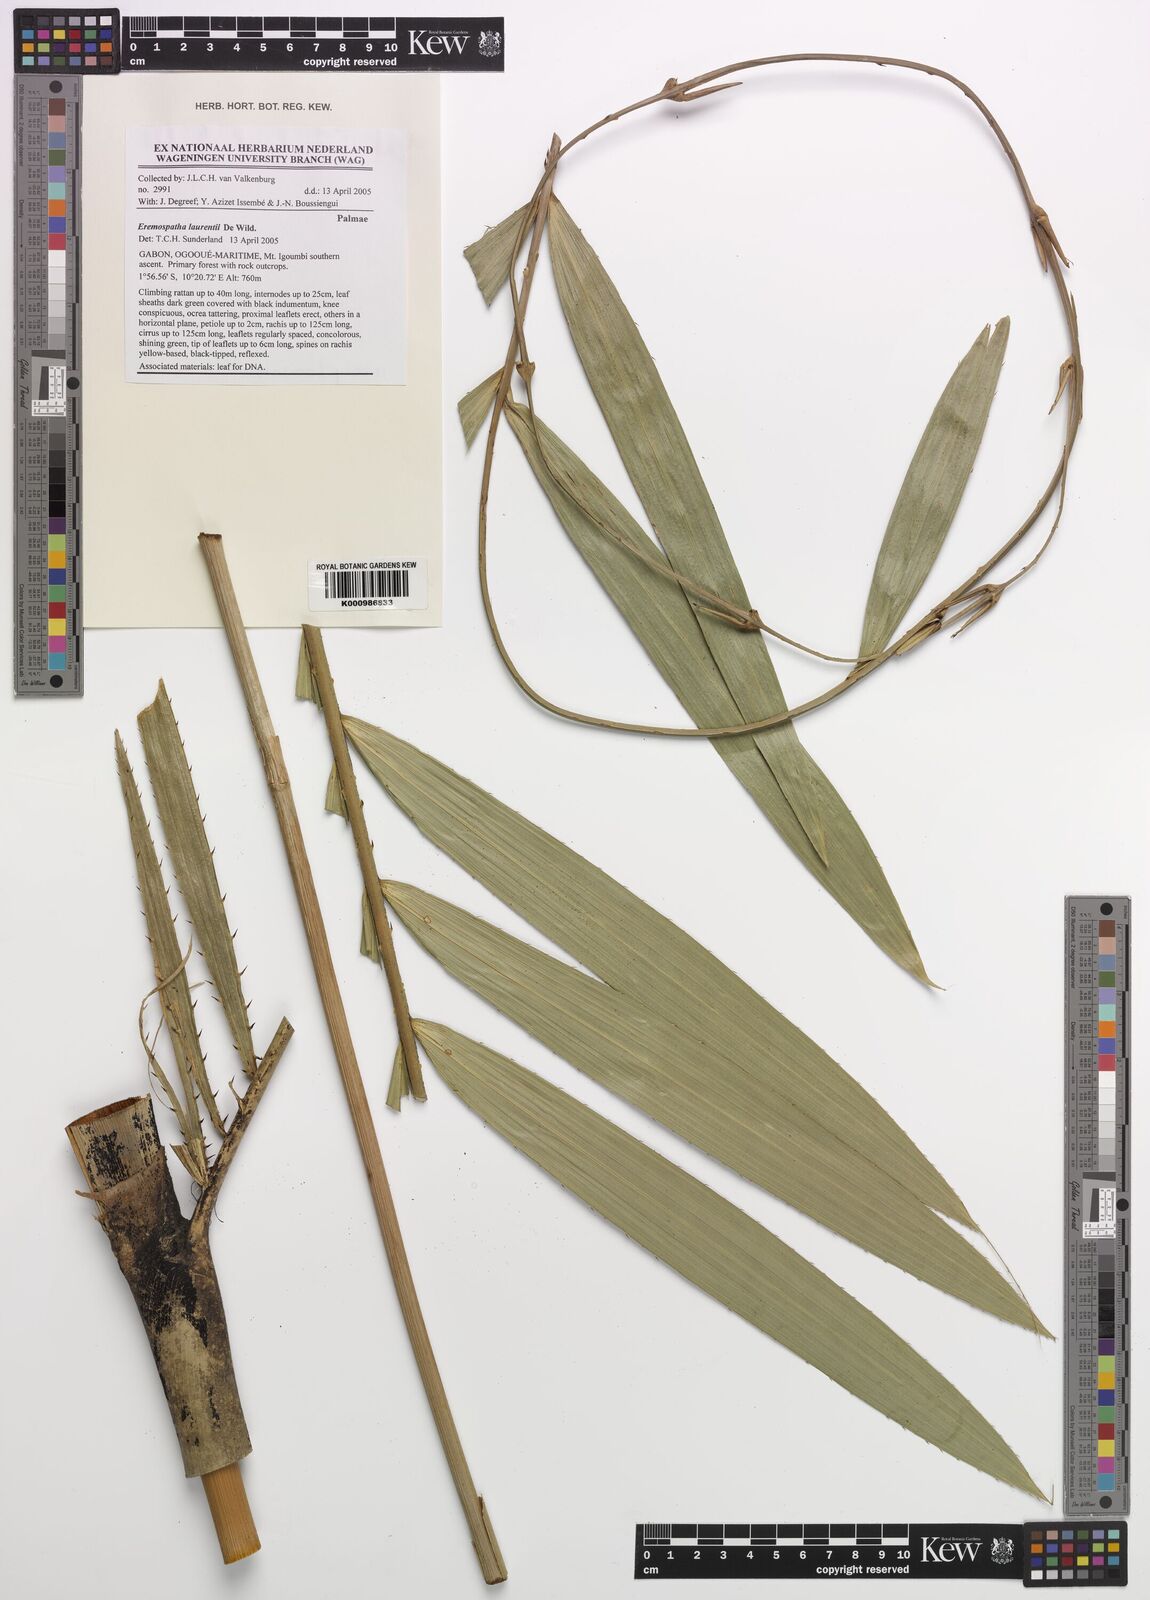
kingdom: Plantae
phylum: Tracheophyta
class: Liliopsida
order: Arecales
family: Arecaceae
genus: Eremospatha
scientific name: Eremospatha laurentii
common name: Rattan palm
